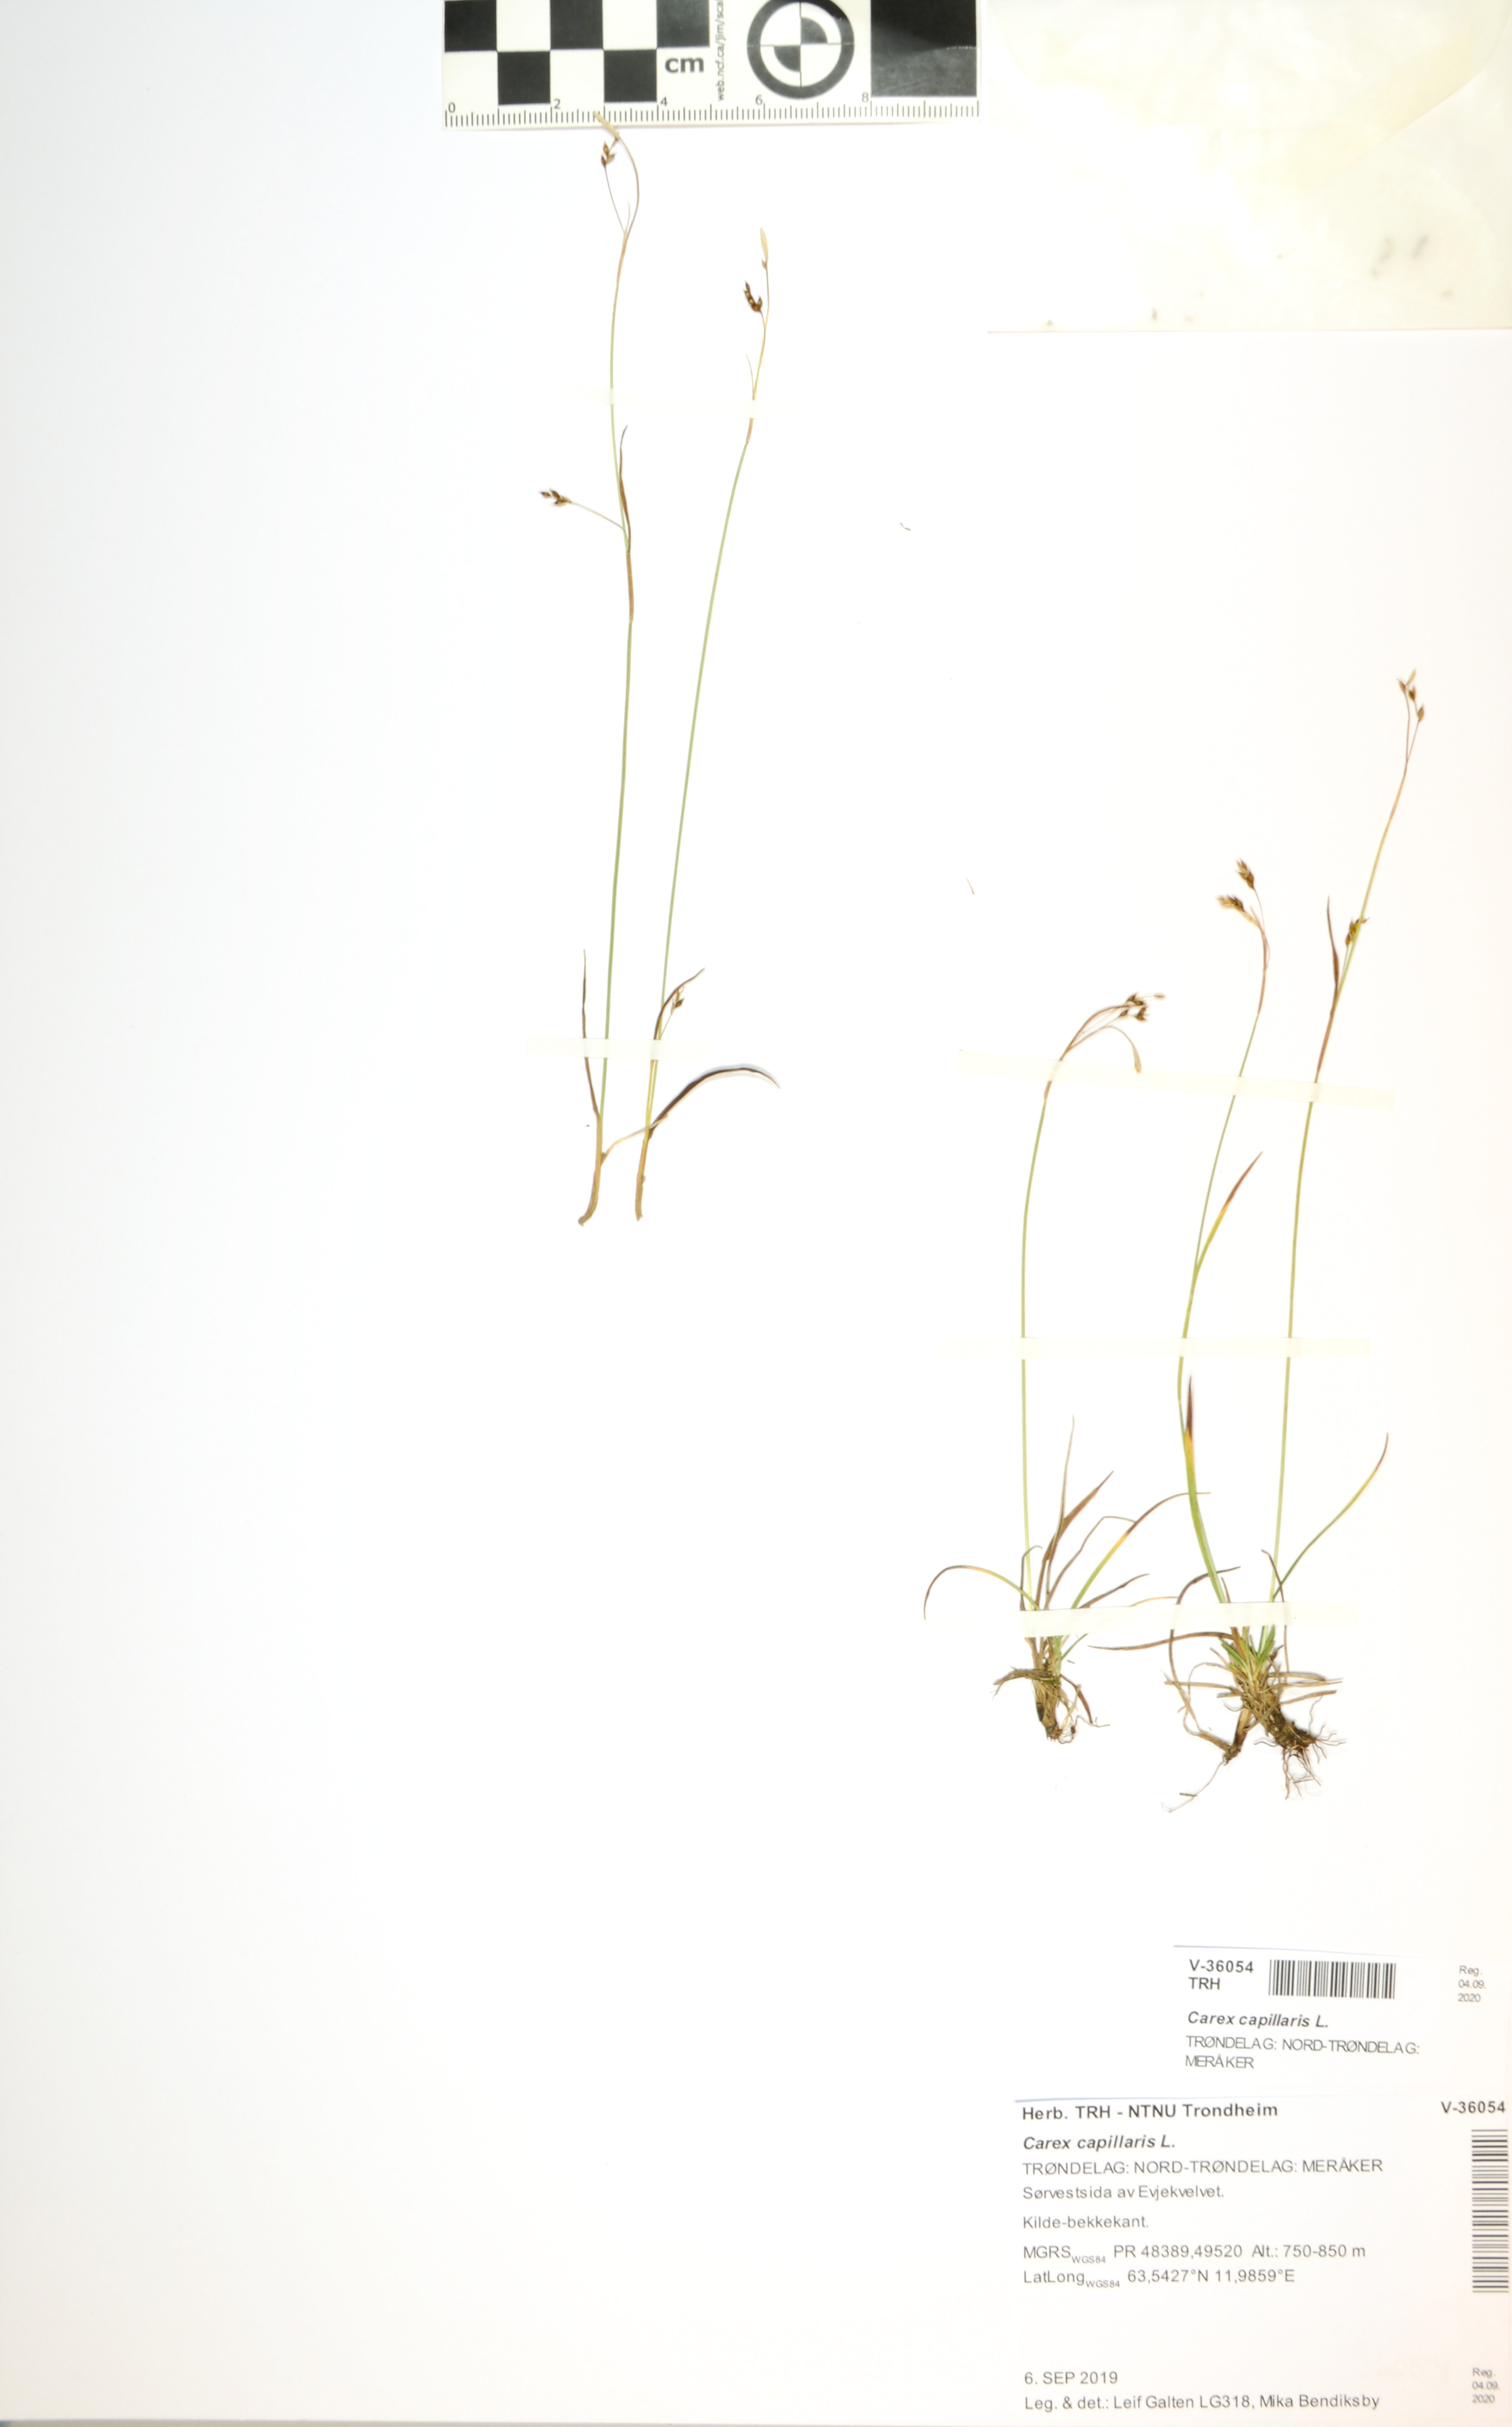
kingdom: Plantae
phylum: Tracheophyta
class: Liliopsida
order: Poales
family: Cyperaceae
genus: Carex
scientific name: Carex capillaris
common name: Hair sedge
